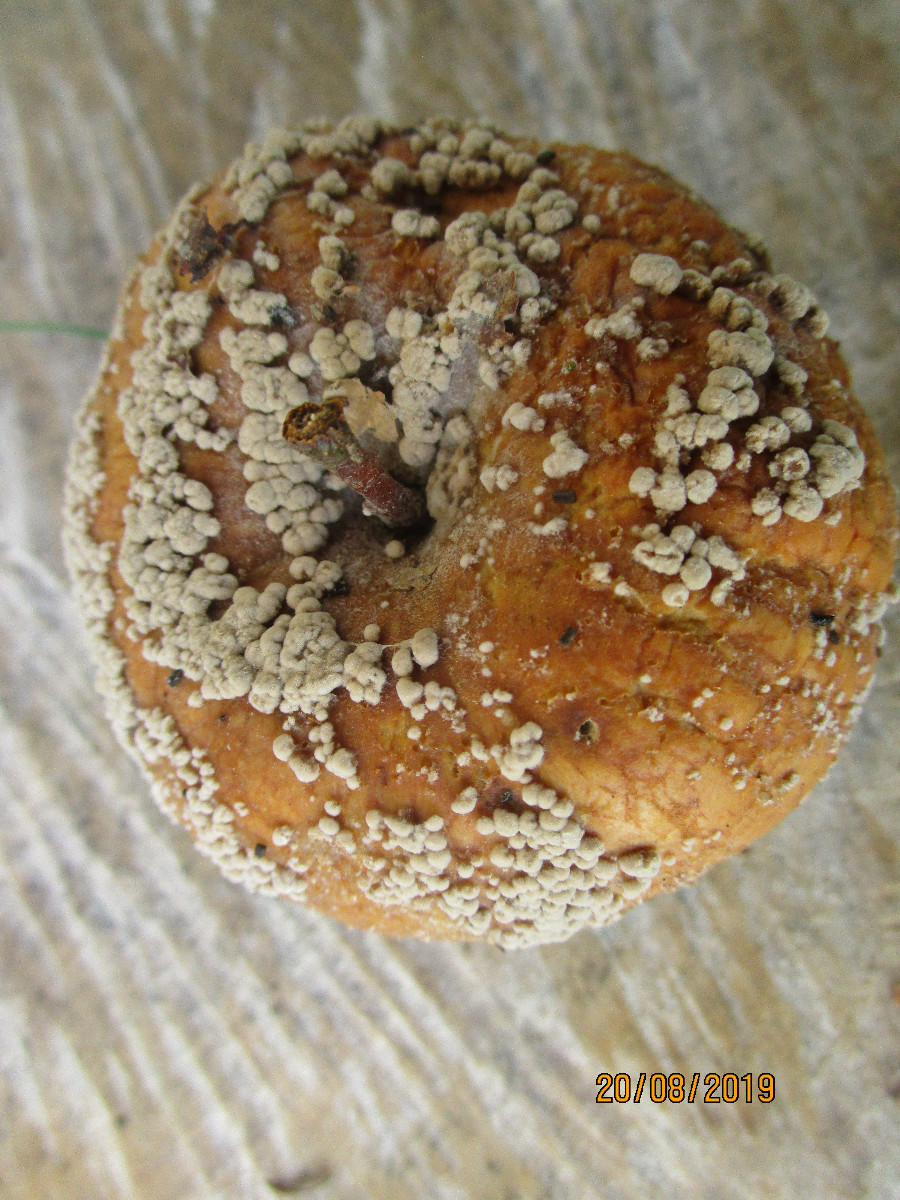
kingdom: Fungi
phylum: Ascomycota
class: Leotiomycetes
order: Helotiales
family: Sclerotiniaceae
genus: Monilinia
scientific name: Monilinia fructigena
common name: æble-knoldskive
